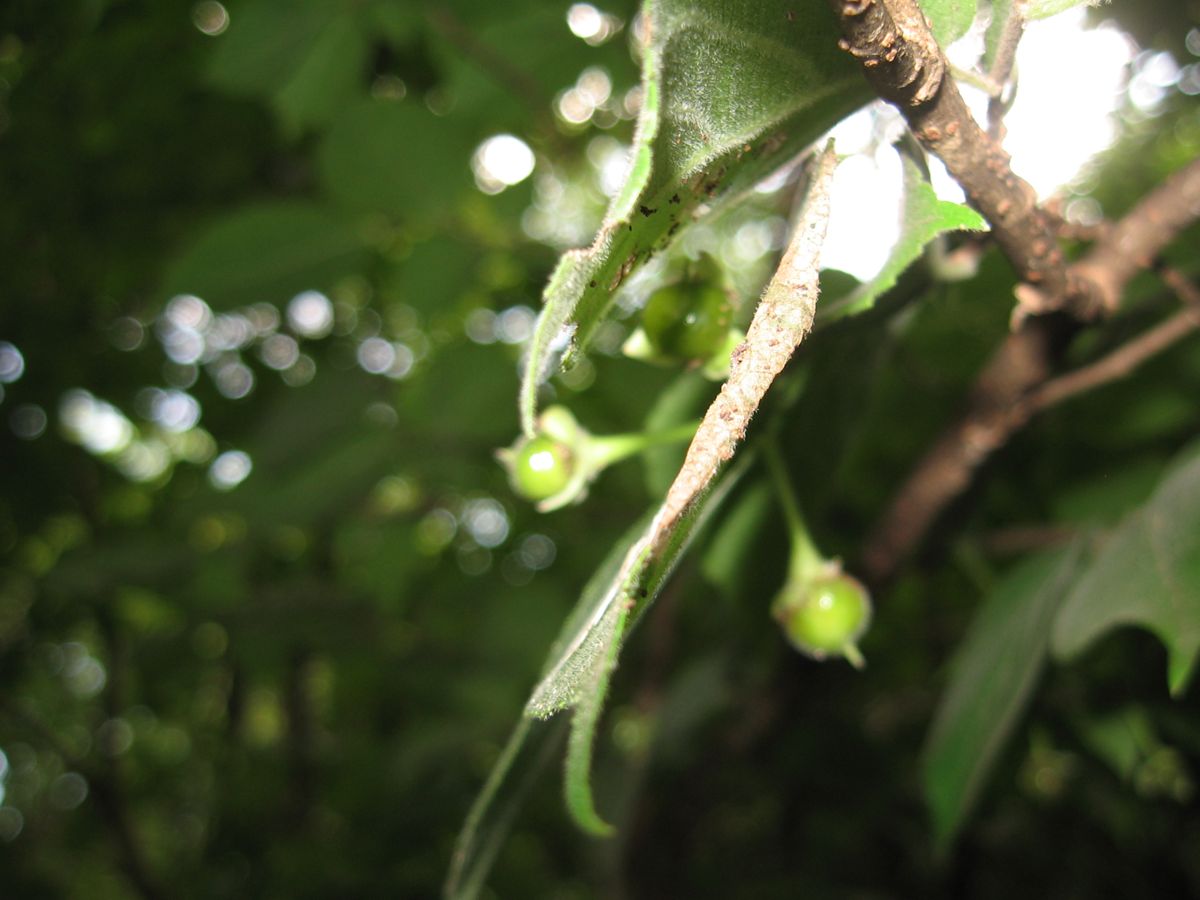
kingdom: Plantae
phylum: Tracheophyta
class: Magnoliopsida
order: Malpighiales
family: Salicaceae
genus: Prockia
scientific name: Prockia crucis
